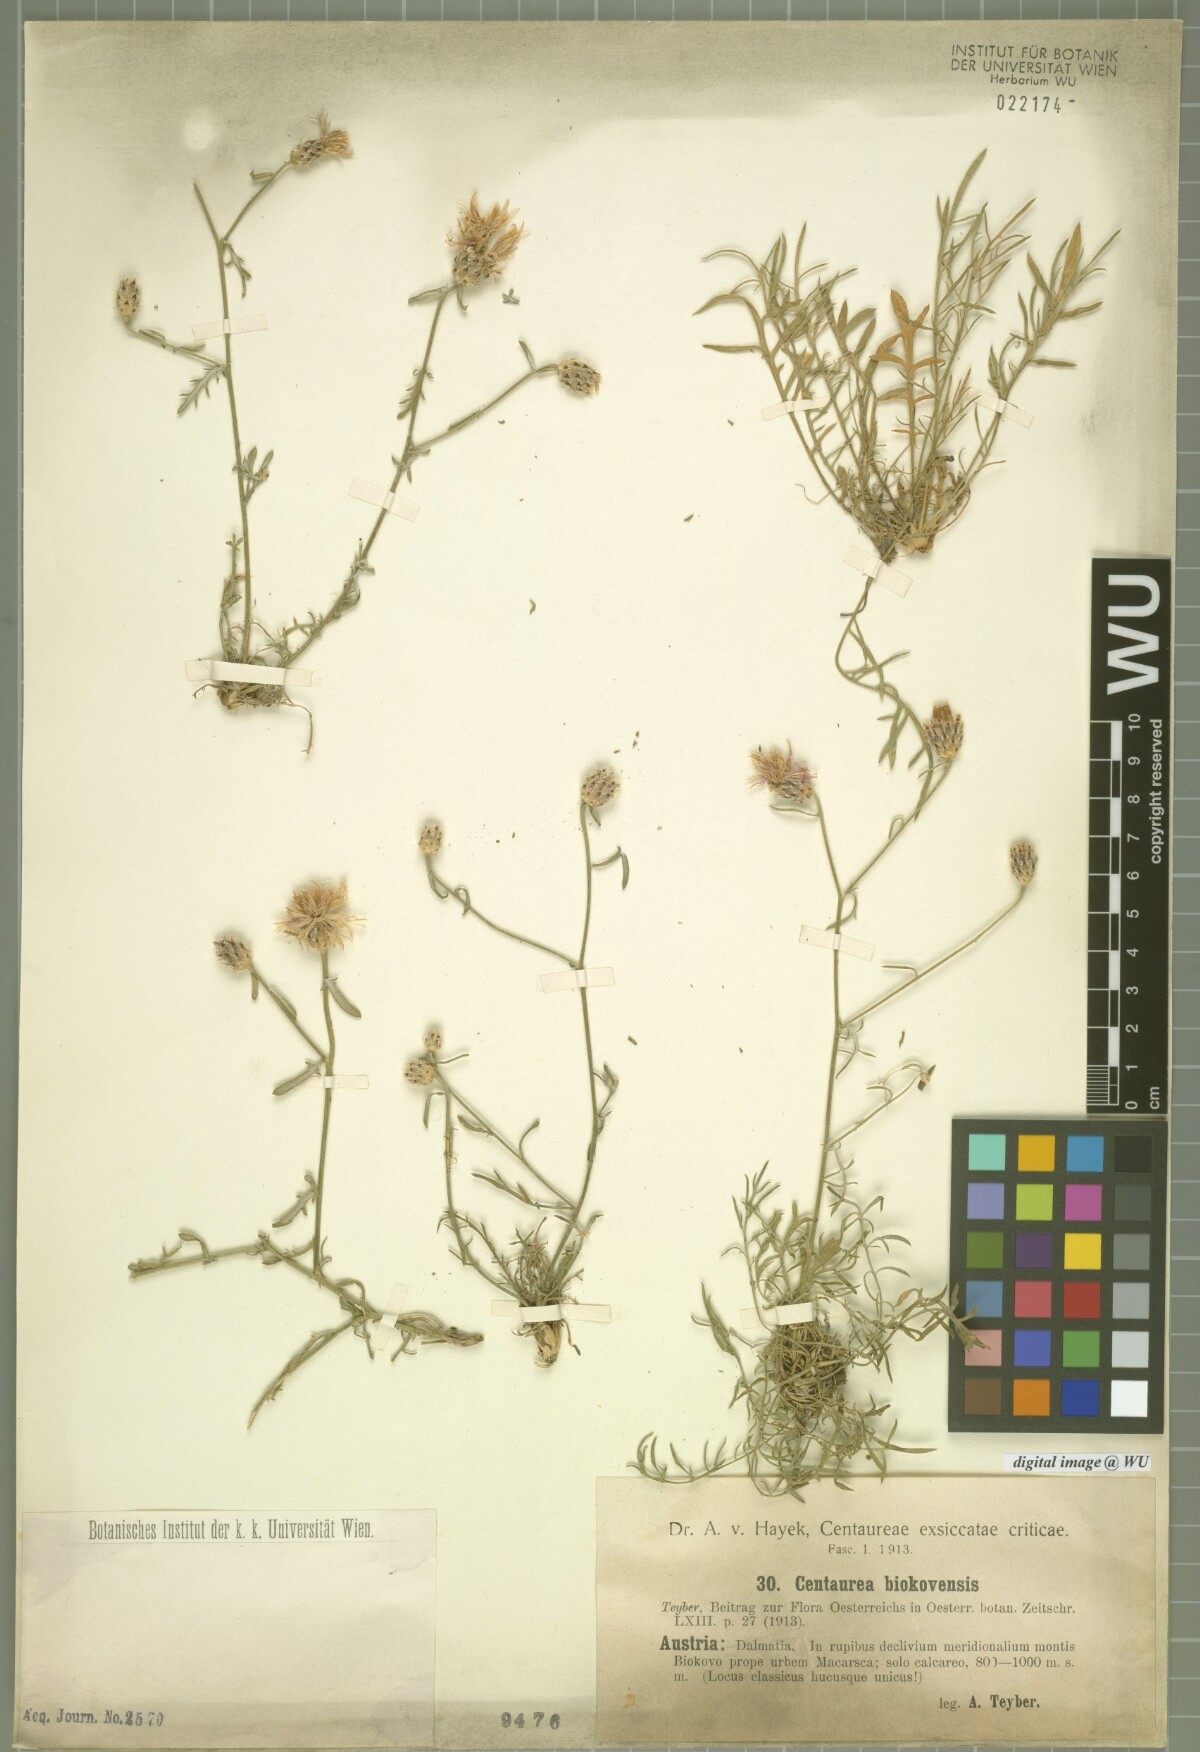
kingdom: Plantae
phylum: Tracheophyta
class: Magnoliopsida
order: Asterales
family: Asteraceae
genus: Centaurea
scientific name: Centaurea biokovensis
